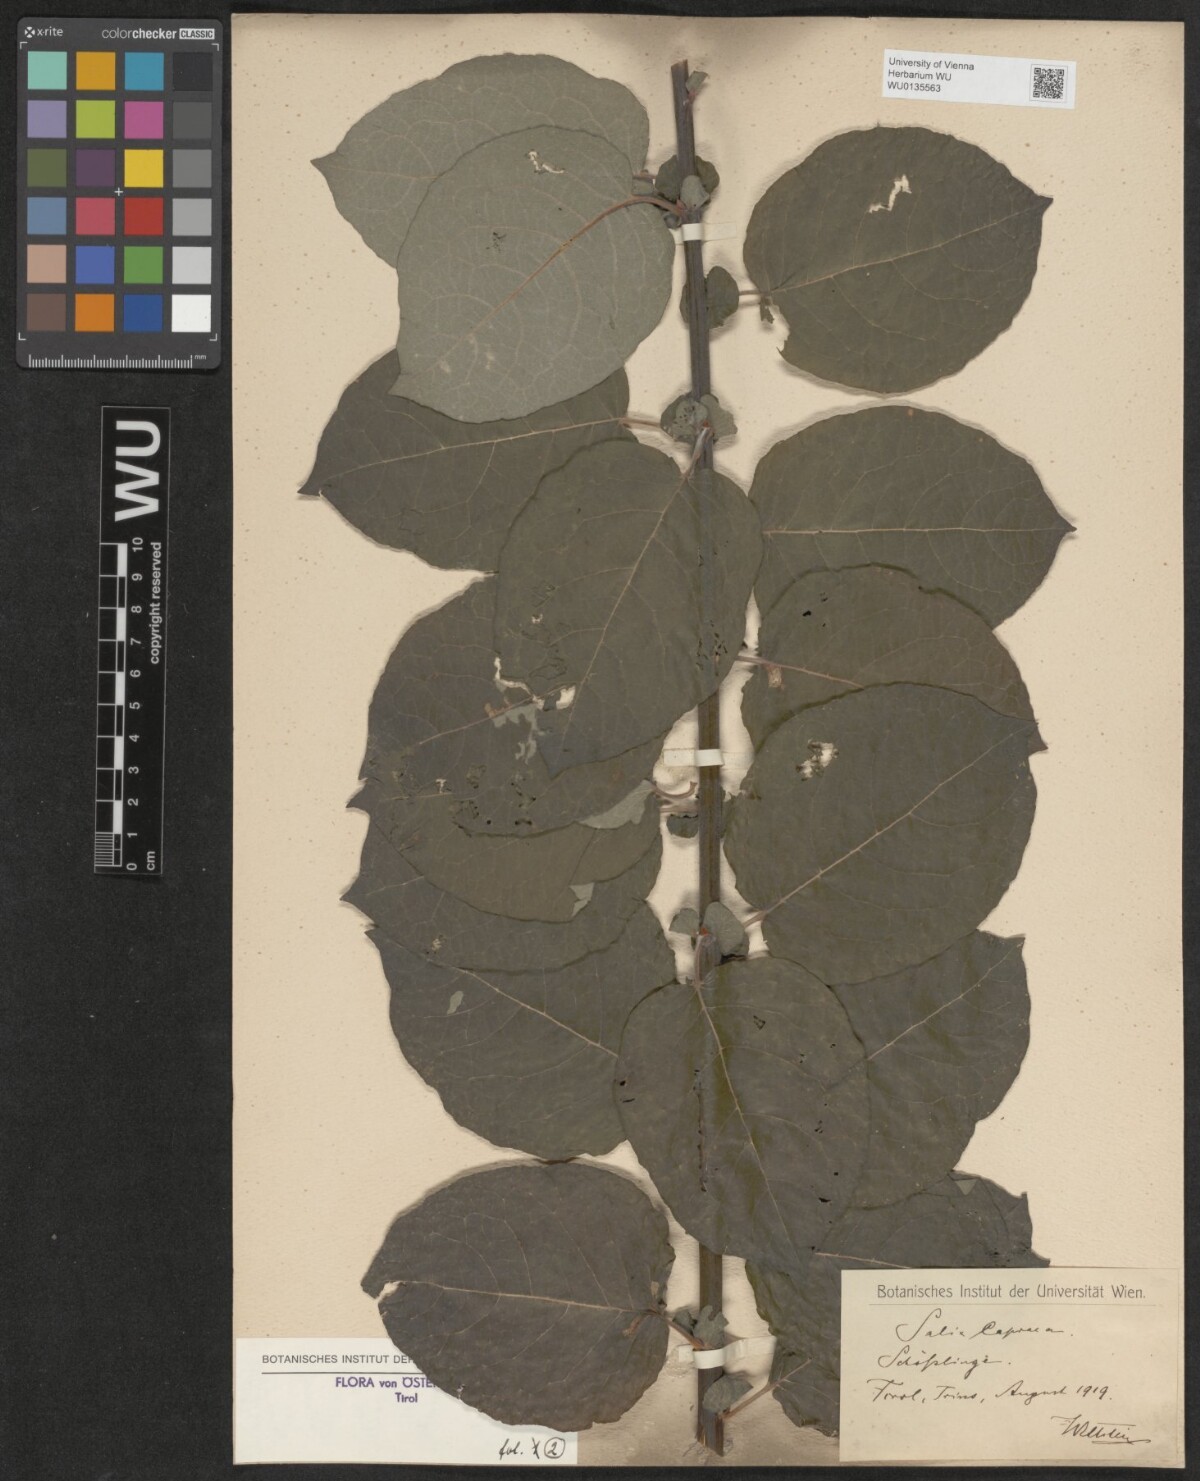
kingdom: Plantae
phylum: Tracheophyta
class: Magnoliopsida
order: Malpighiales
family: Salicaceae
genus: Salix
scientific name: Salix caprea
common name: Goat willow
